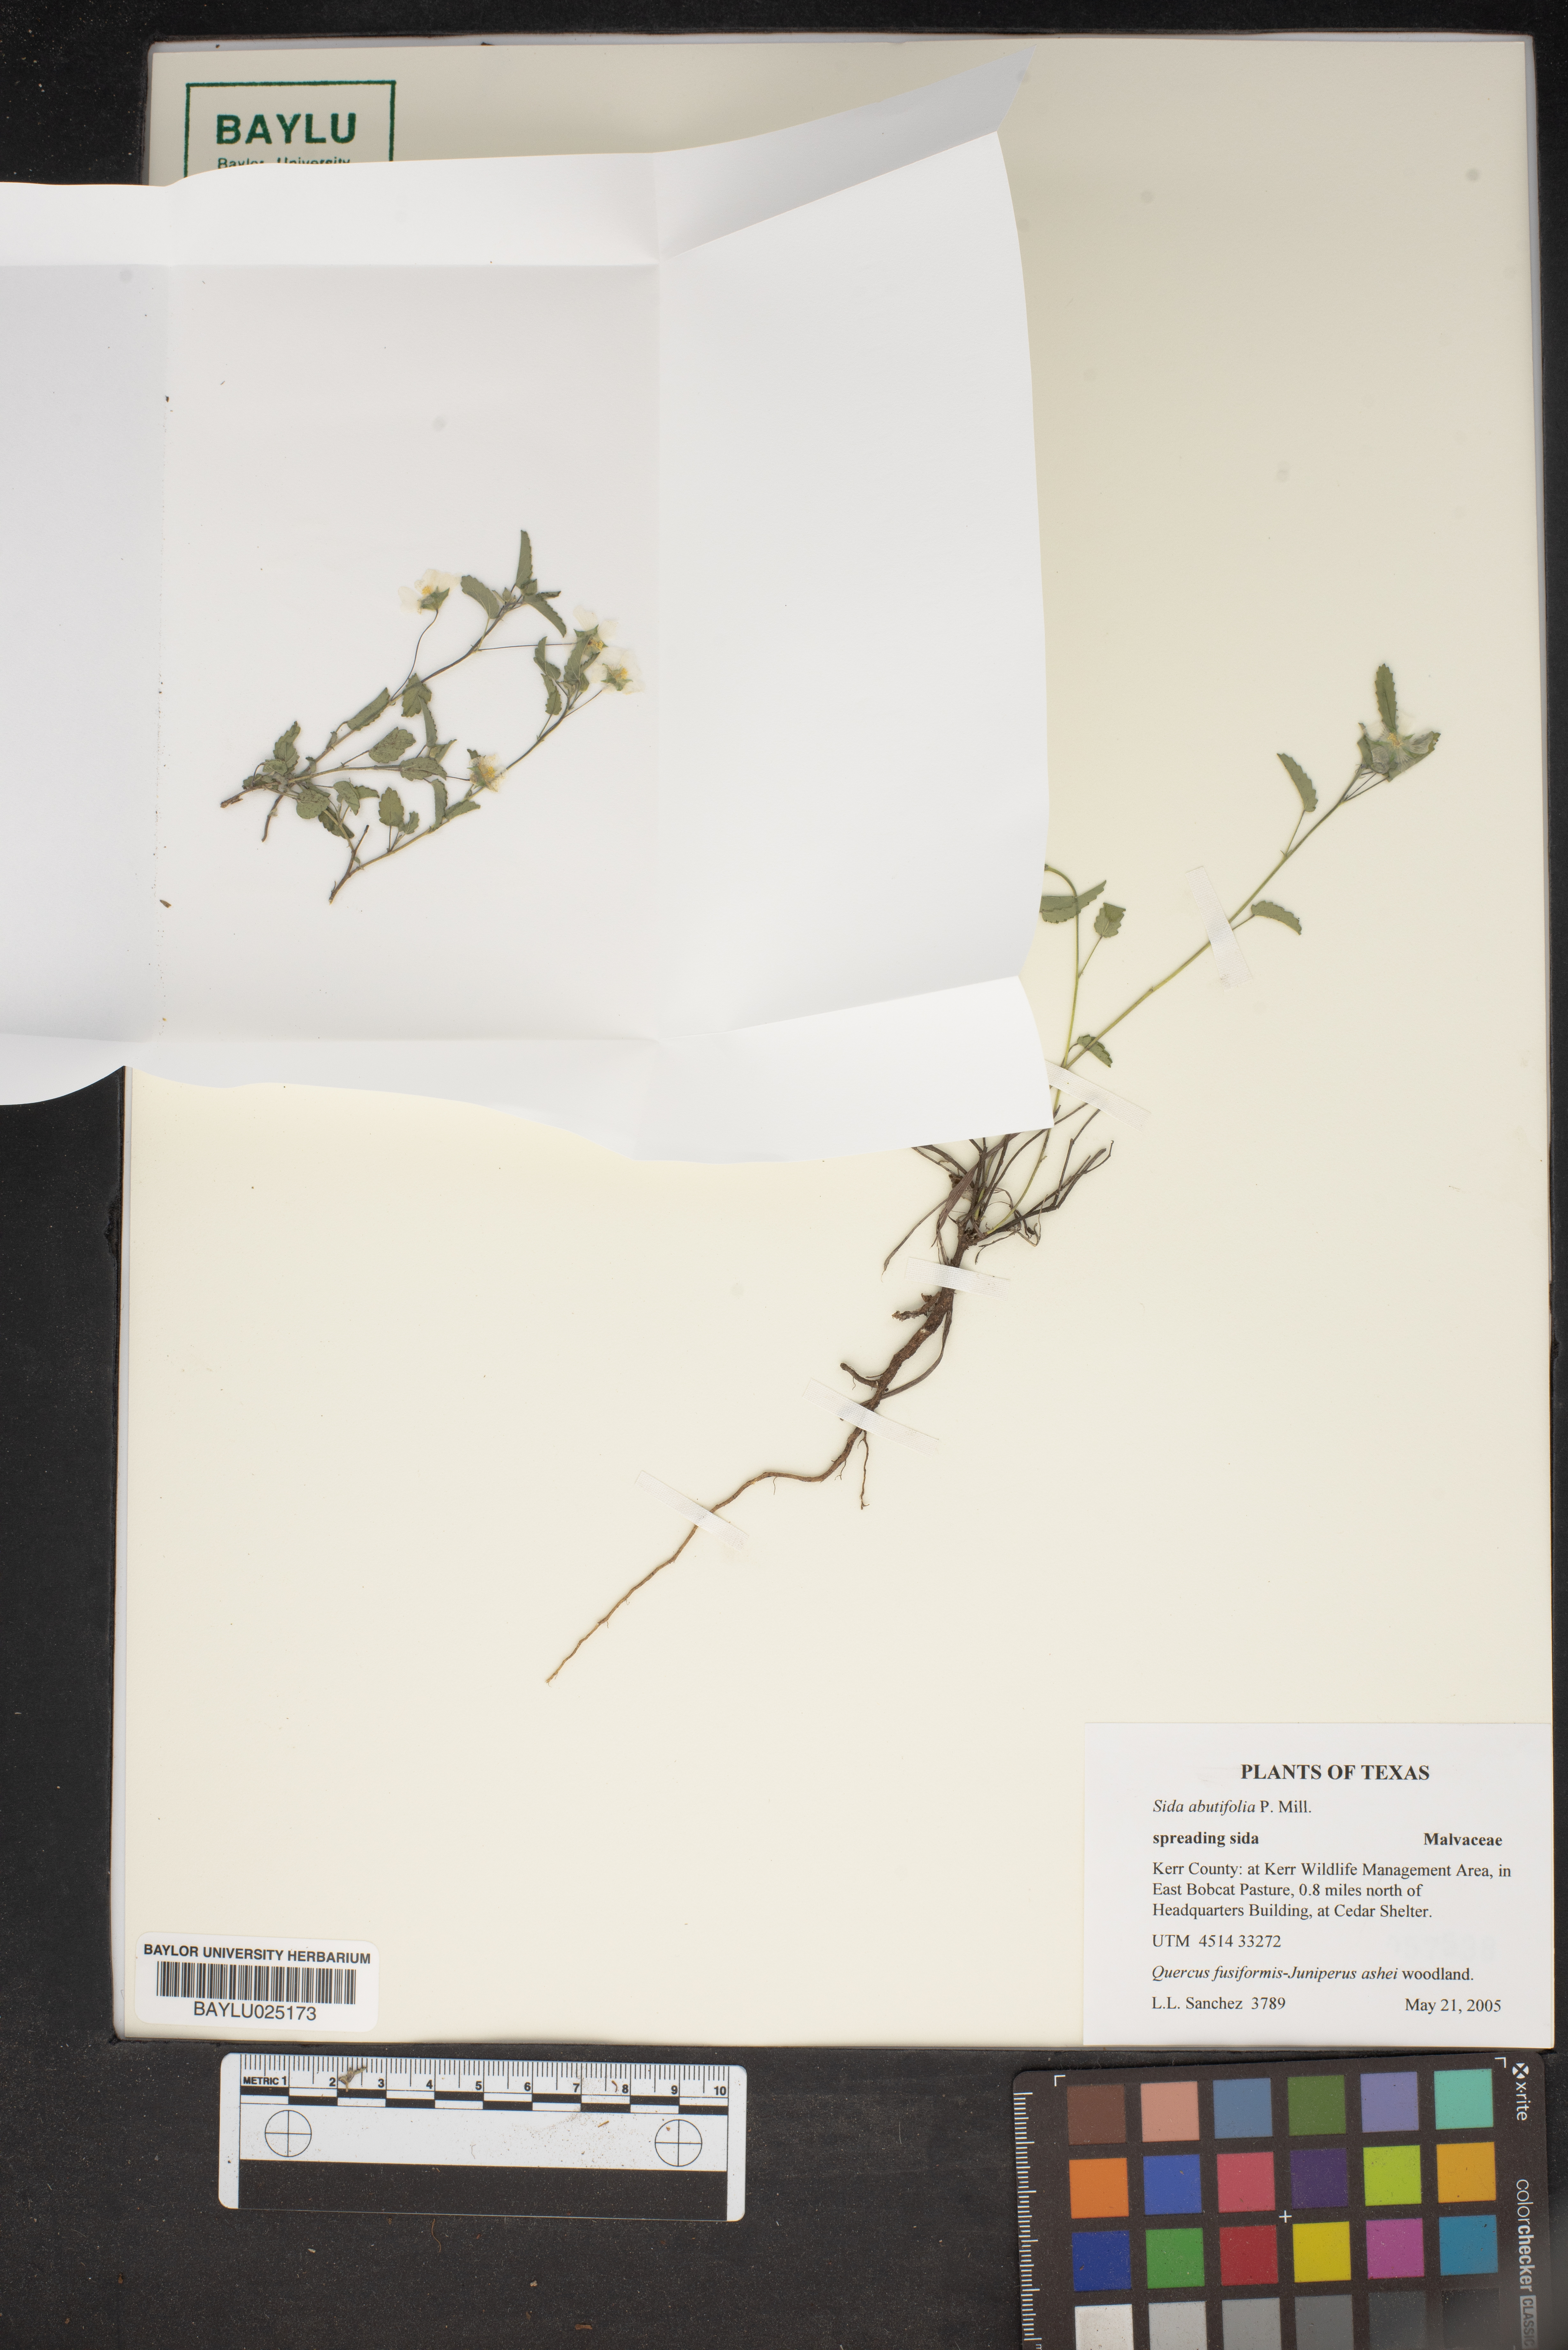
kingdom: Plantae
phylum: Tracheophyta
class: Magnoliopsida
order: Malvales
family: Malvaceae
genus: Sida
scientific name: Sida abutifolia
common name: Spreading fantails
